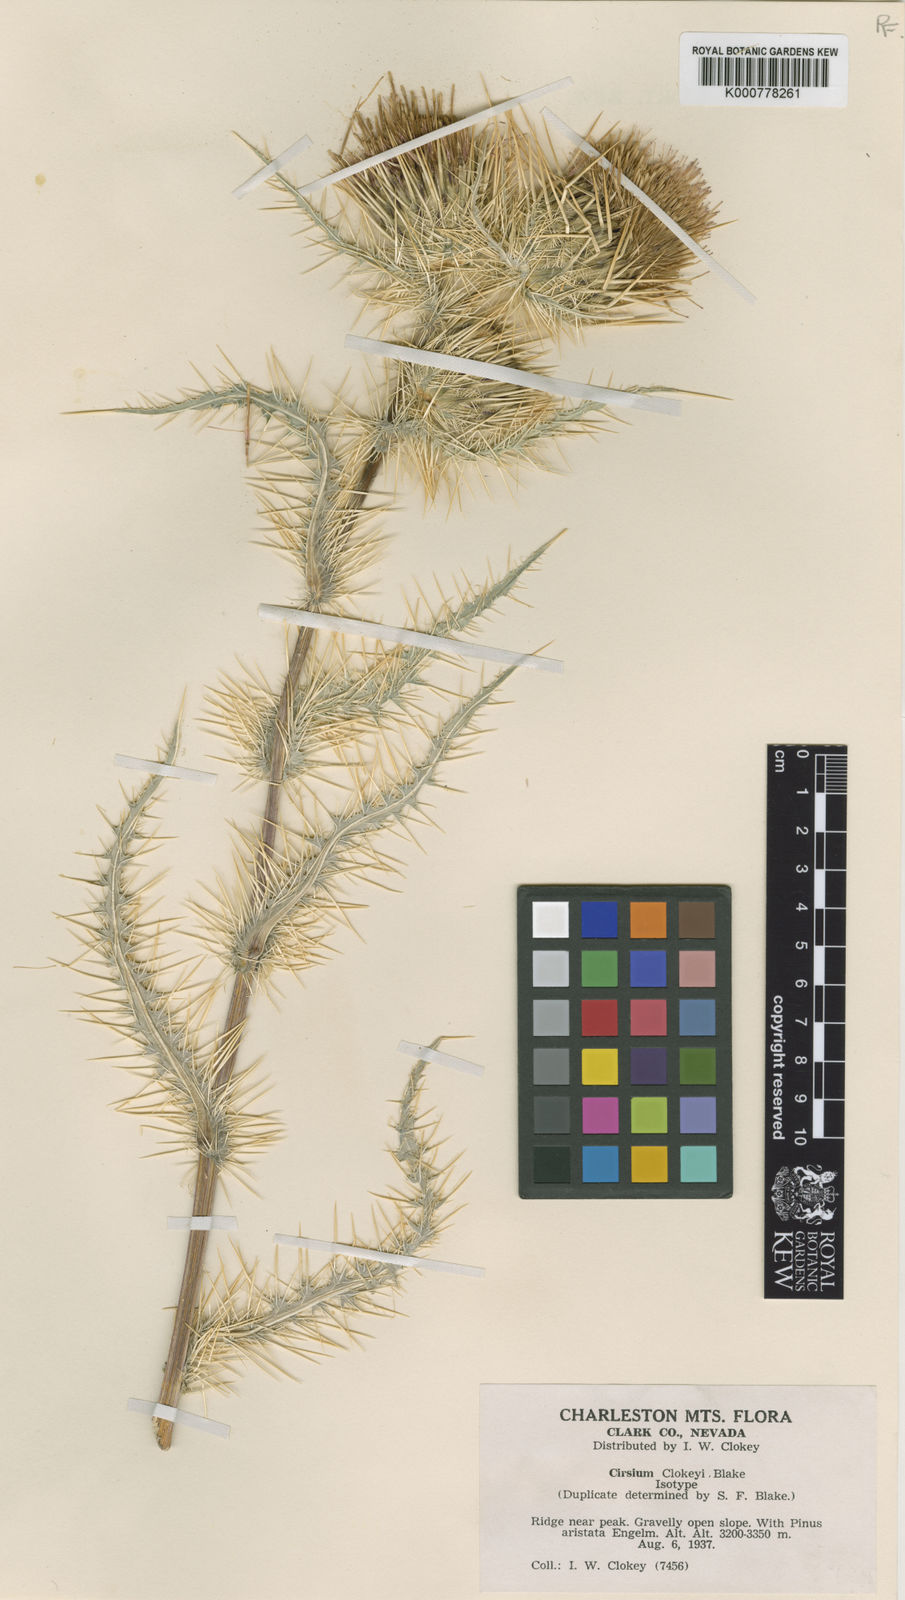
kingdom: Plantae
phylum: Tracheophyta
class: Magnoliopsida
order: Asterales
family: Asteraceae
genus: Cirsium
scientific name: Cirsium eatonii
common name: Eaton's thistle
